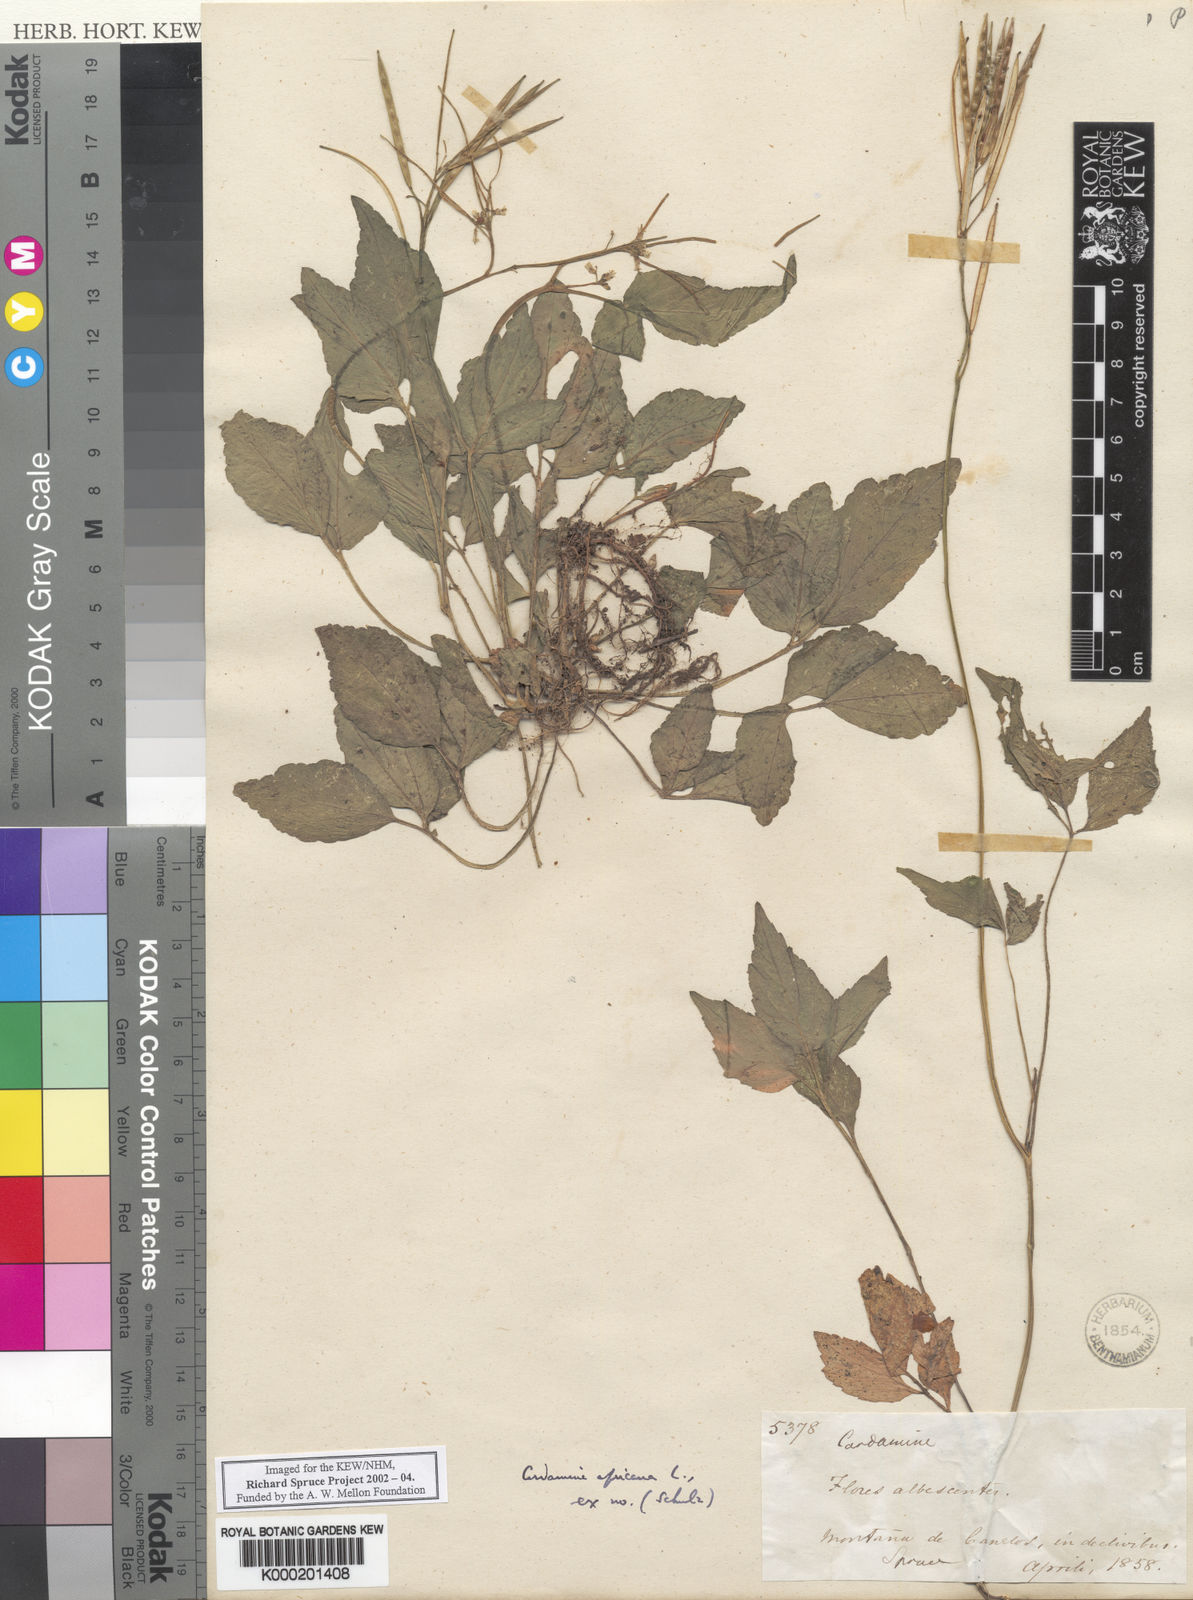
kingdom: Plantae
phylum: Tracheophyta
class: Magnoliopsida
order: Brassicales
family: Brassicaceae
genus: Cardamine
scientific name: Cardamine africana
